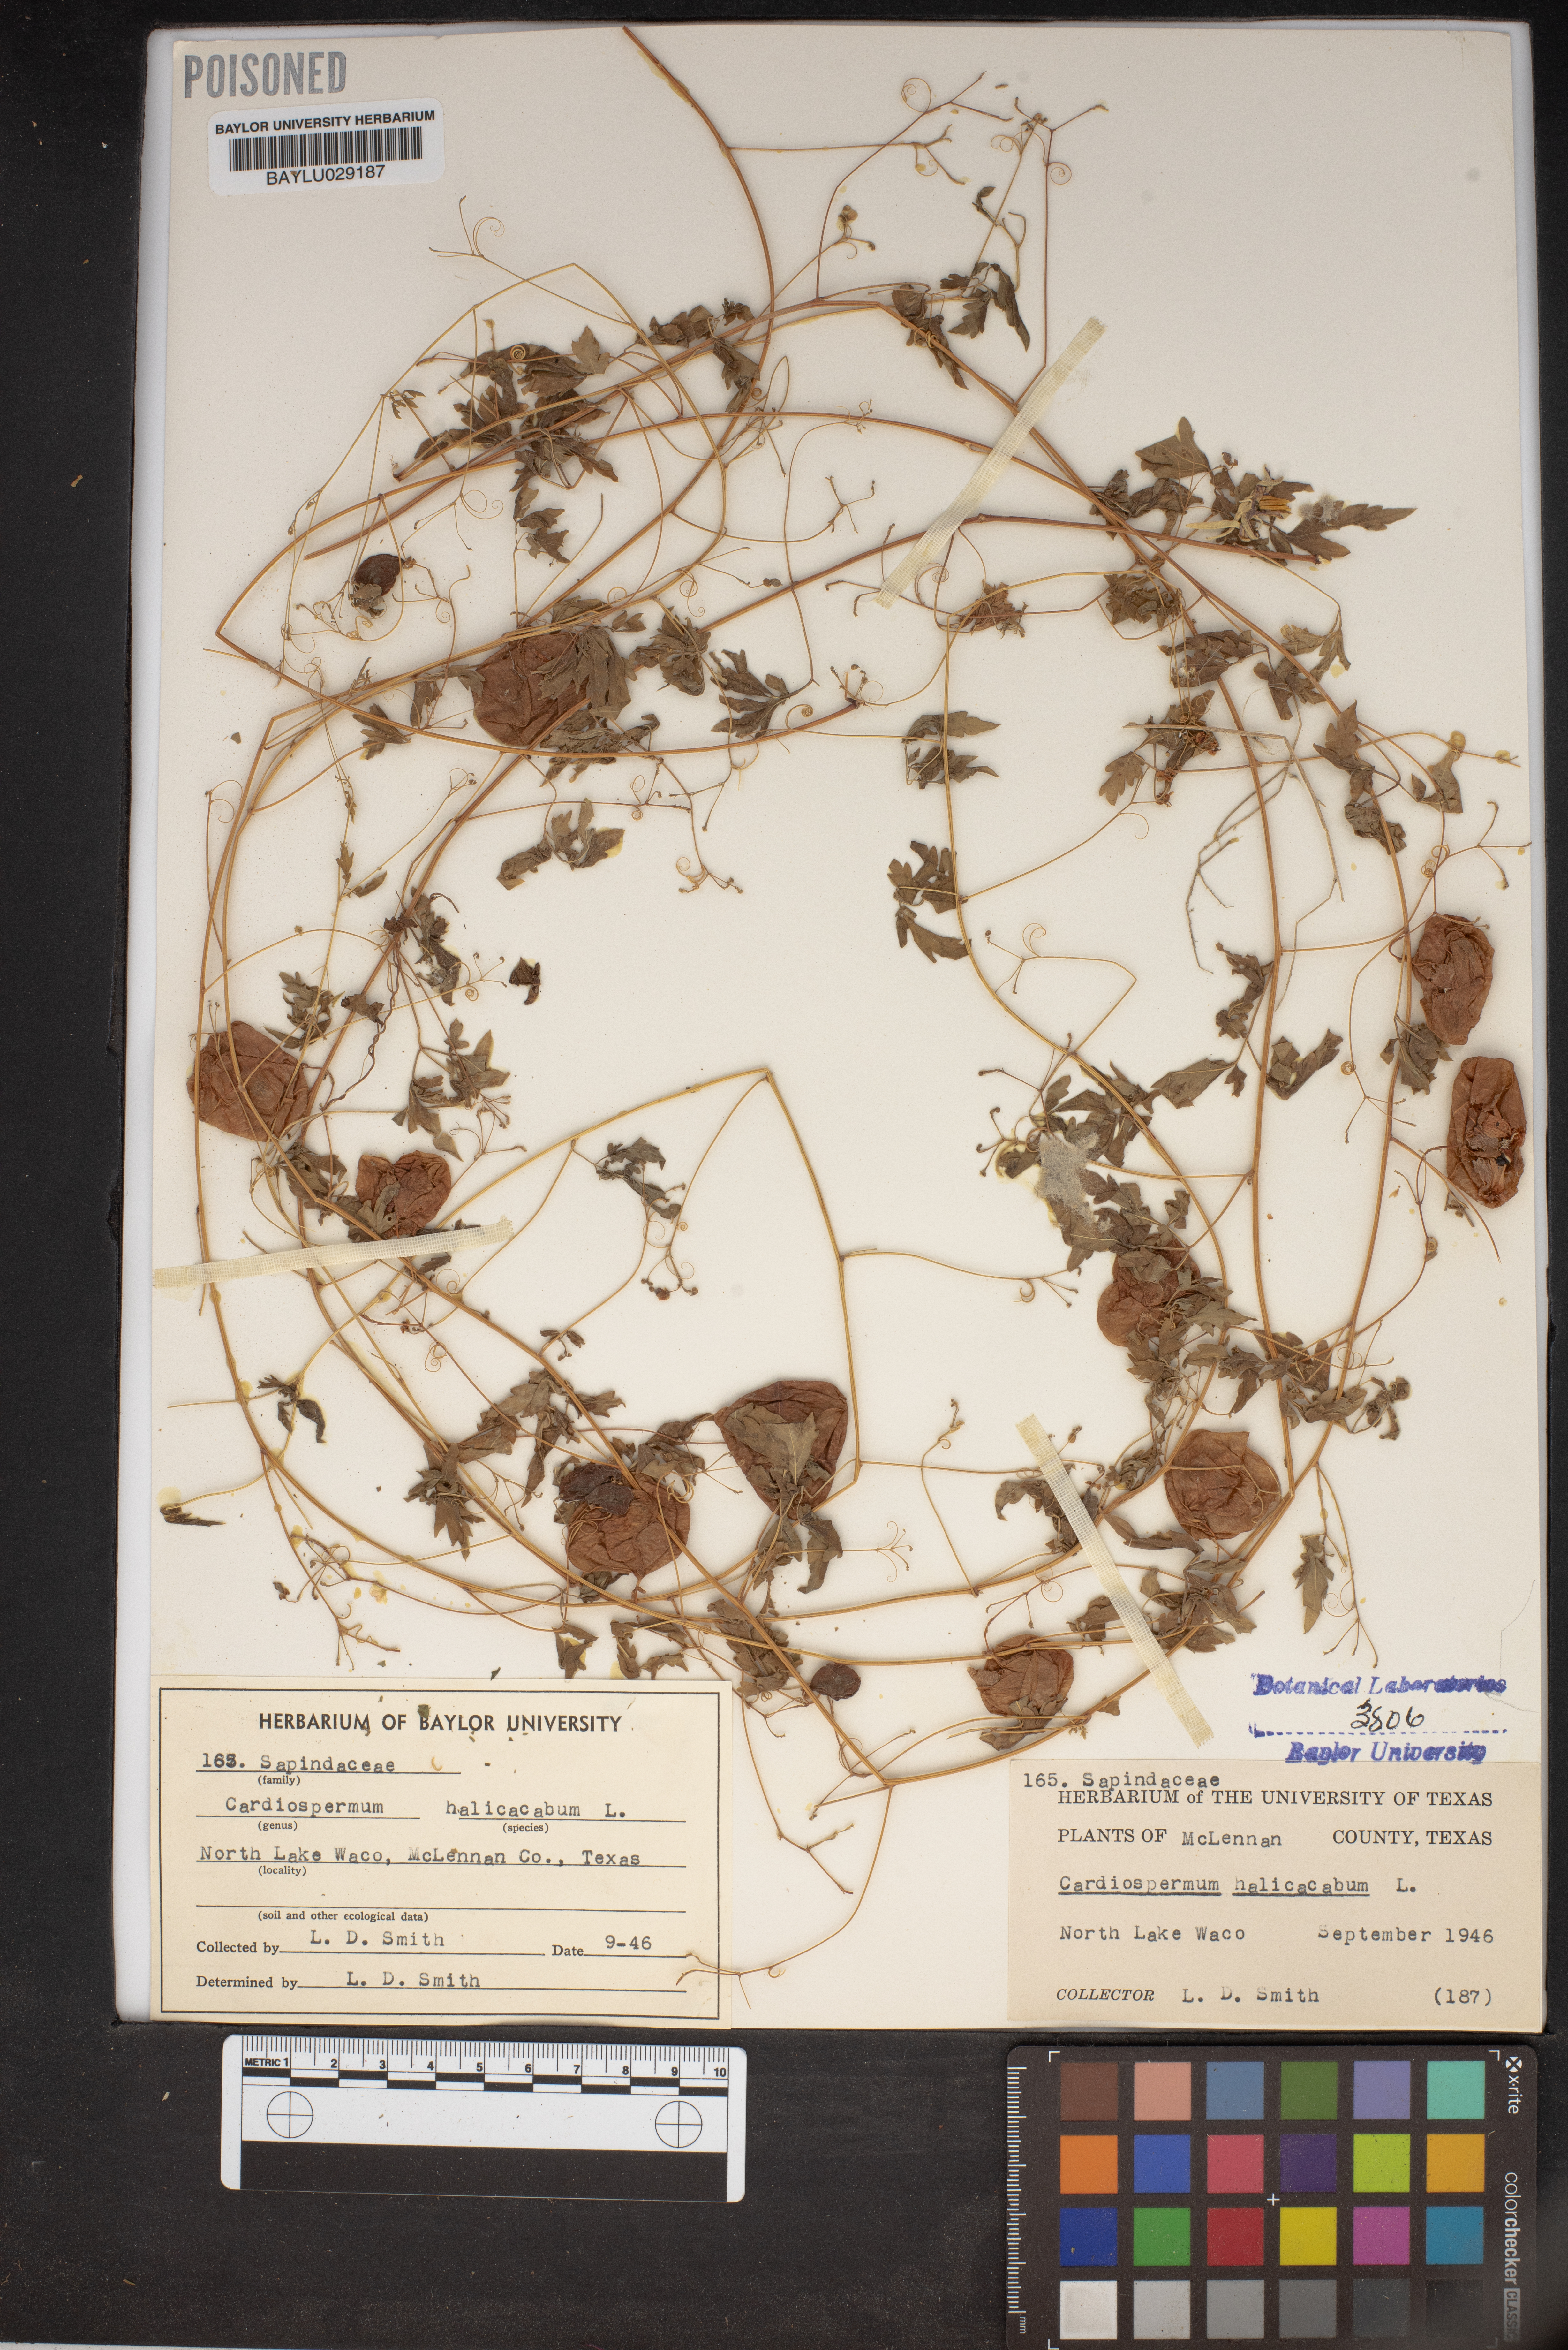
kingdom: Plantae
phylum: Tracheophyta
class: Magnoliopsida
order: Sapindales
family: Sapindaceae
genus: Cardiospermum
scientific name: Cardiospermum halicacabum
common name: Balloon vine
